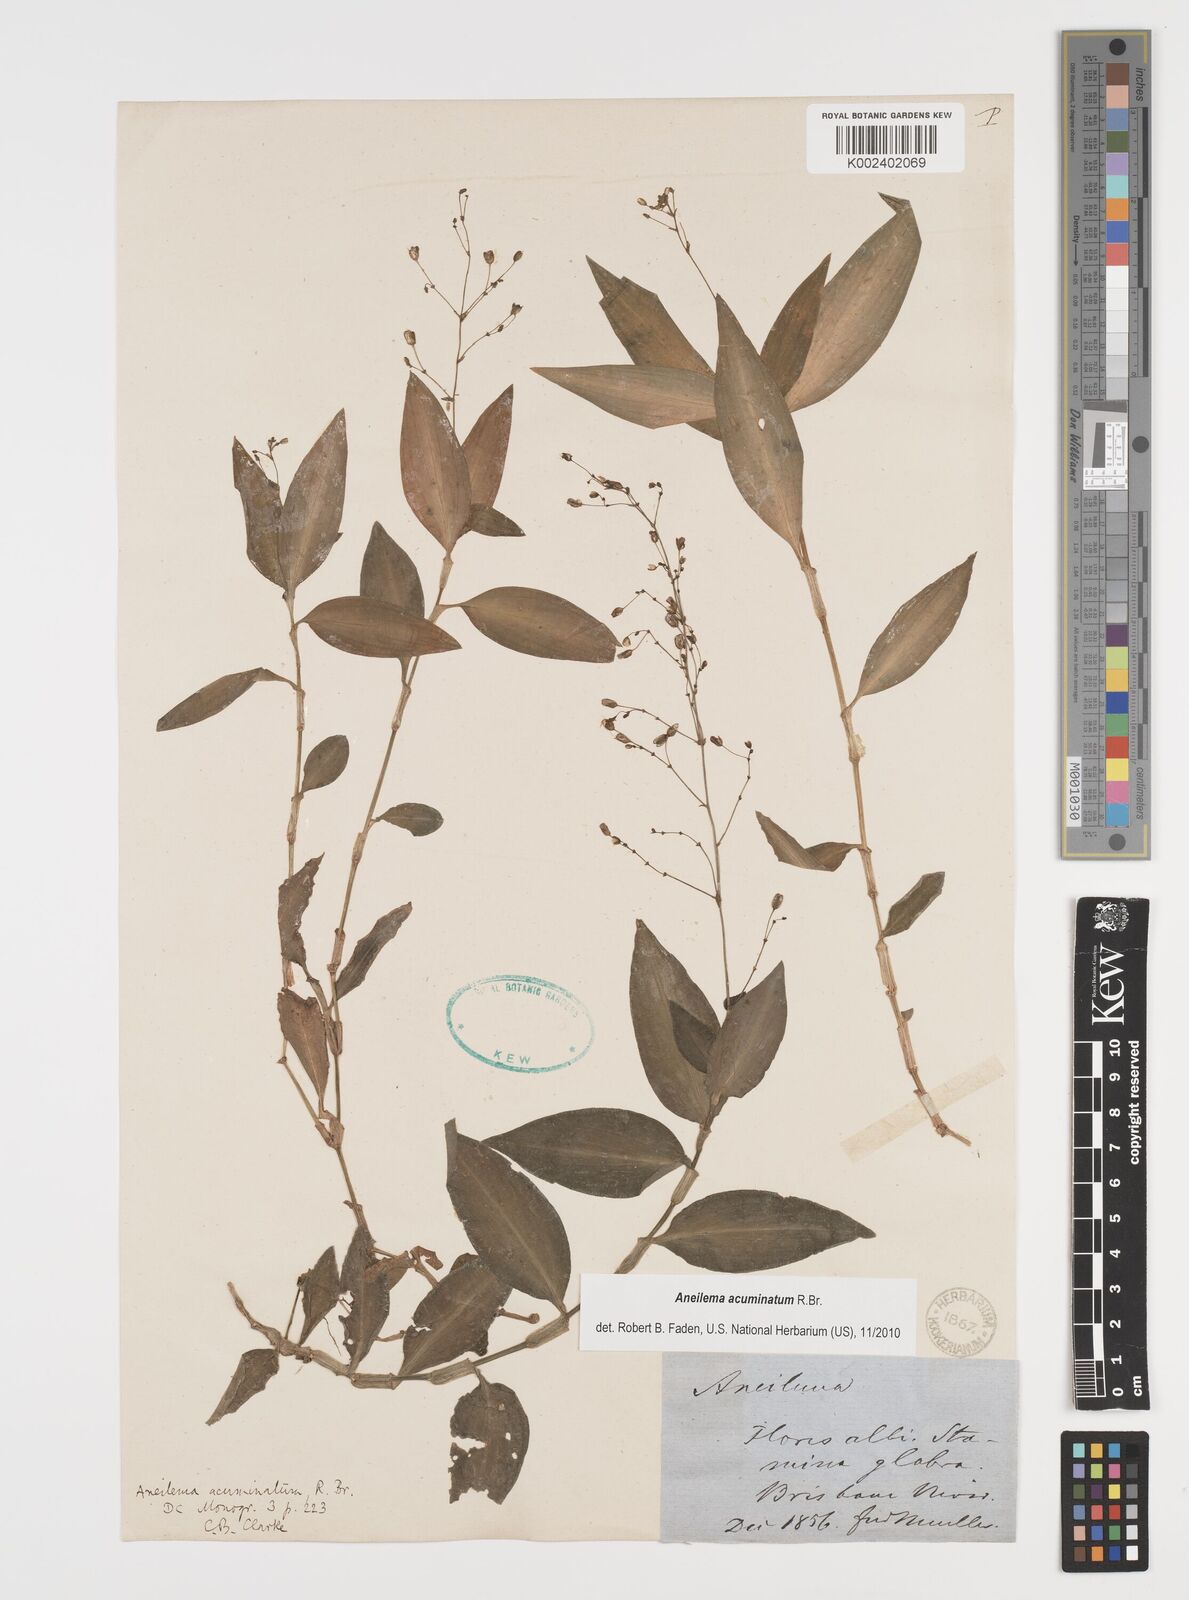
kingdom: Plantae
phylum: Tracheophyta
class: Liliopsida
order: Commelinales
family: Commelinaceae
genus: Aneilema
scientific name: Aneilema acuminatum
